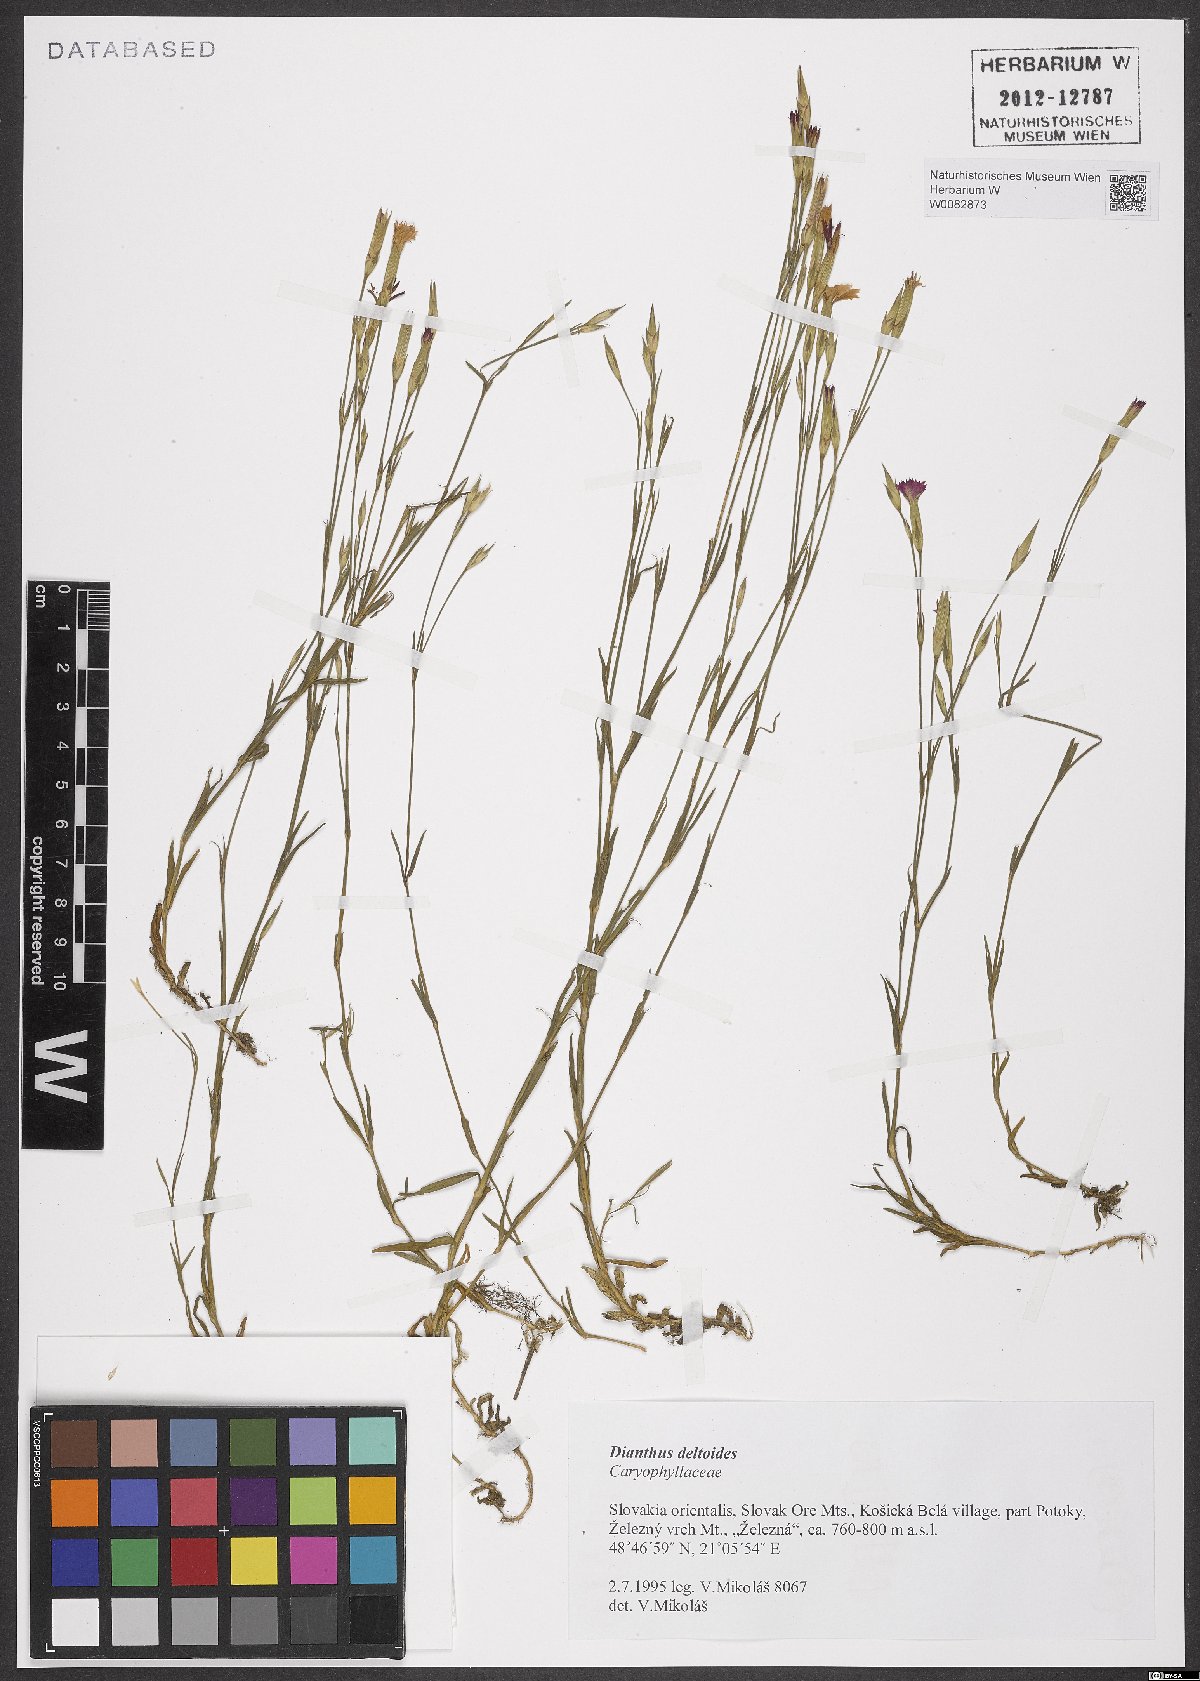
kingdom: Plantae
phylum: Tracheophyta
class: Magnoliopsida
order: Caryophyllales
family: Caryophyllaceae
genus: Dianthus
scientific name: Dianthus deltoides
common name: Maiden pink
